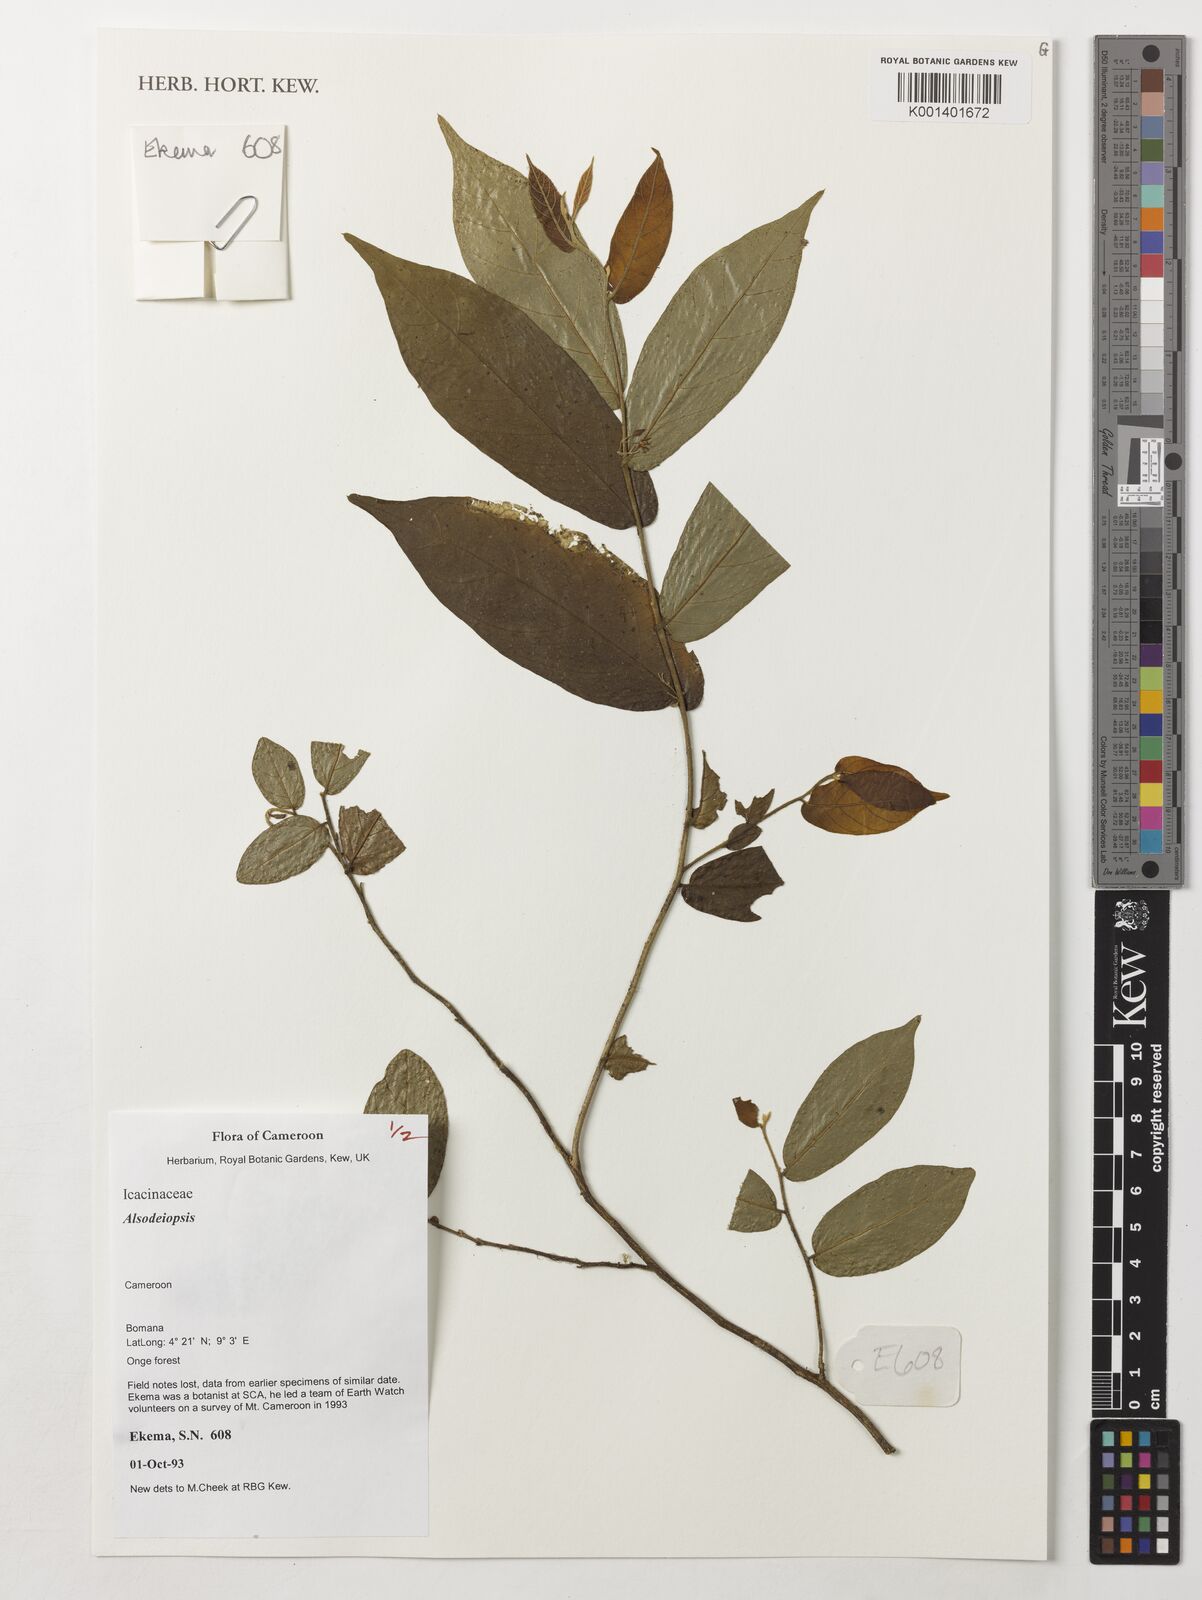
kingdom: Plantae
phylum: Tracheophyta
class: Magnoliopsida
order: Icacinales
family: Icacinaceae
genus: Alsodeiopsis
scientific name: Alsodeiopsis
